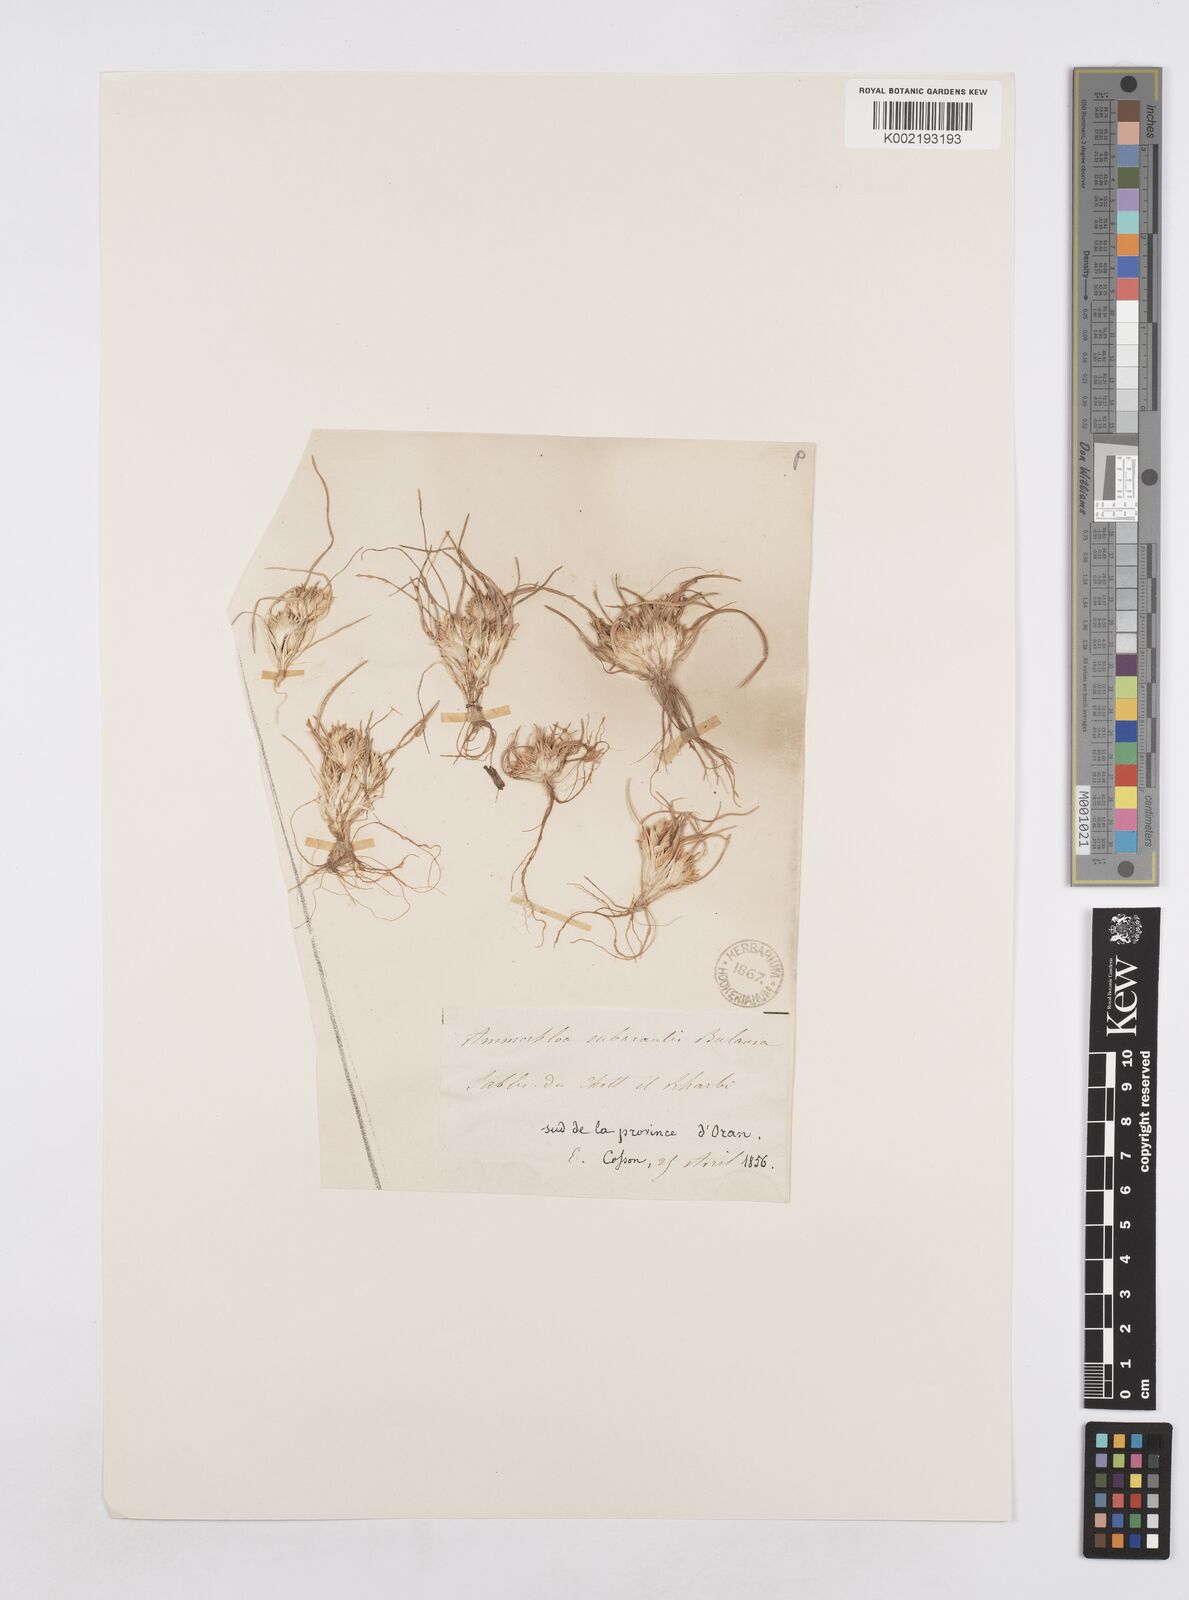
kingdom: Plantae
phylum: Tracheophyta
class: Liliopsida
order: Poales
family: Poaceae
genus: Ammochloa
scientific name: Ammochloa palaestina
